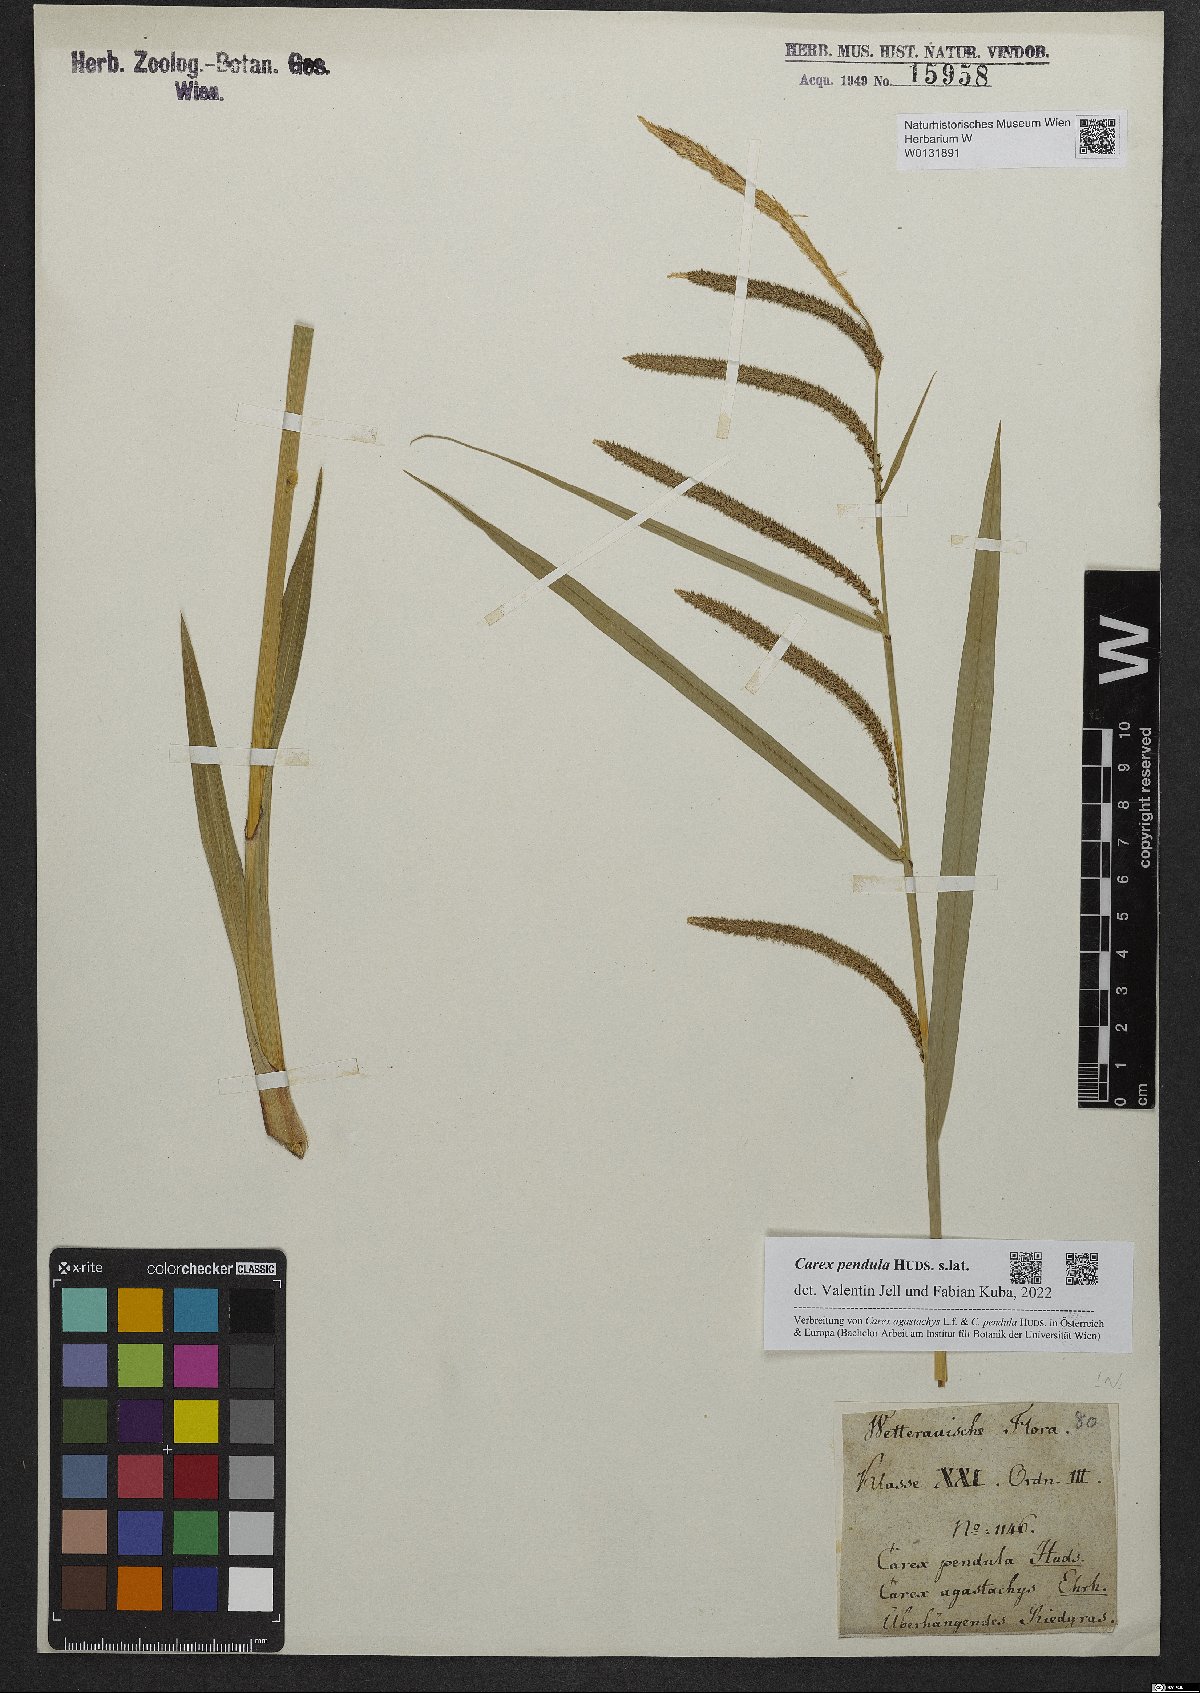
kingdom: Plantae
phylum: Tracheophyta
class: Liliopsida
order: Poales
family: Cyperaceae
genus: Carex
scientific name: Carex pendula
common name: Pendulous sedge
